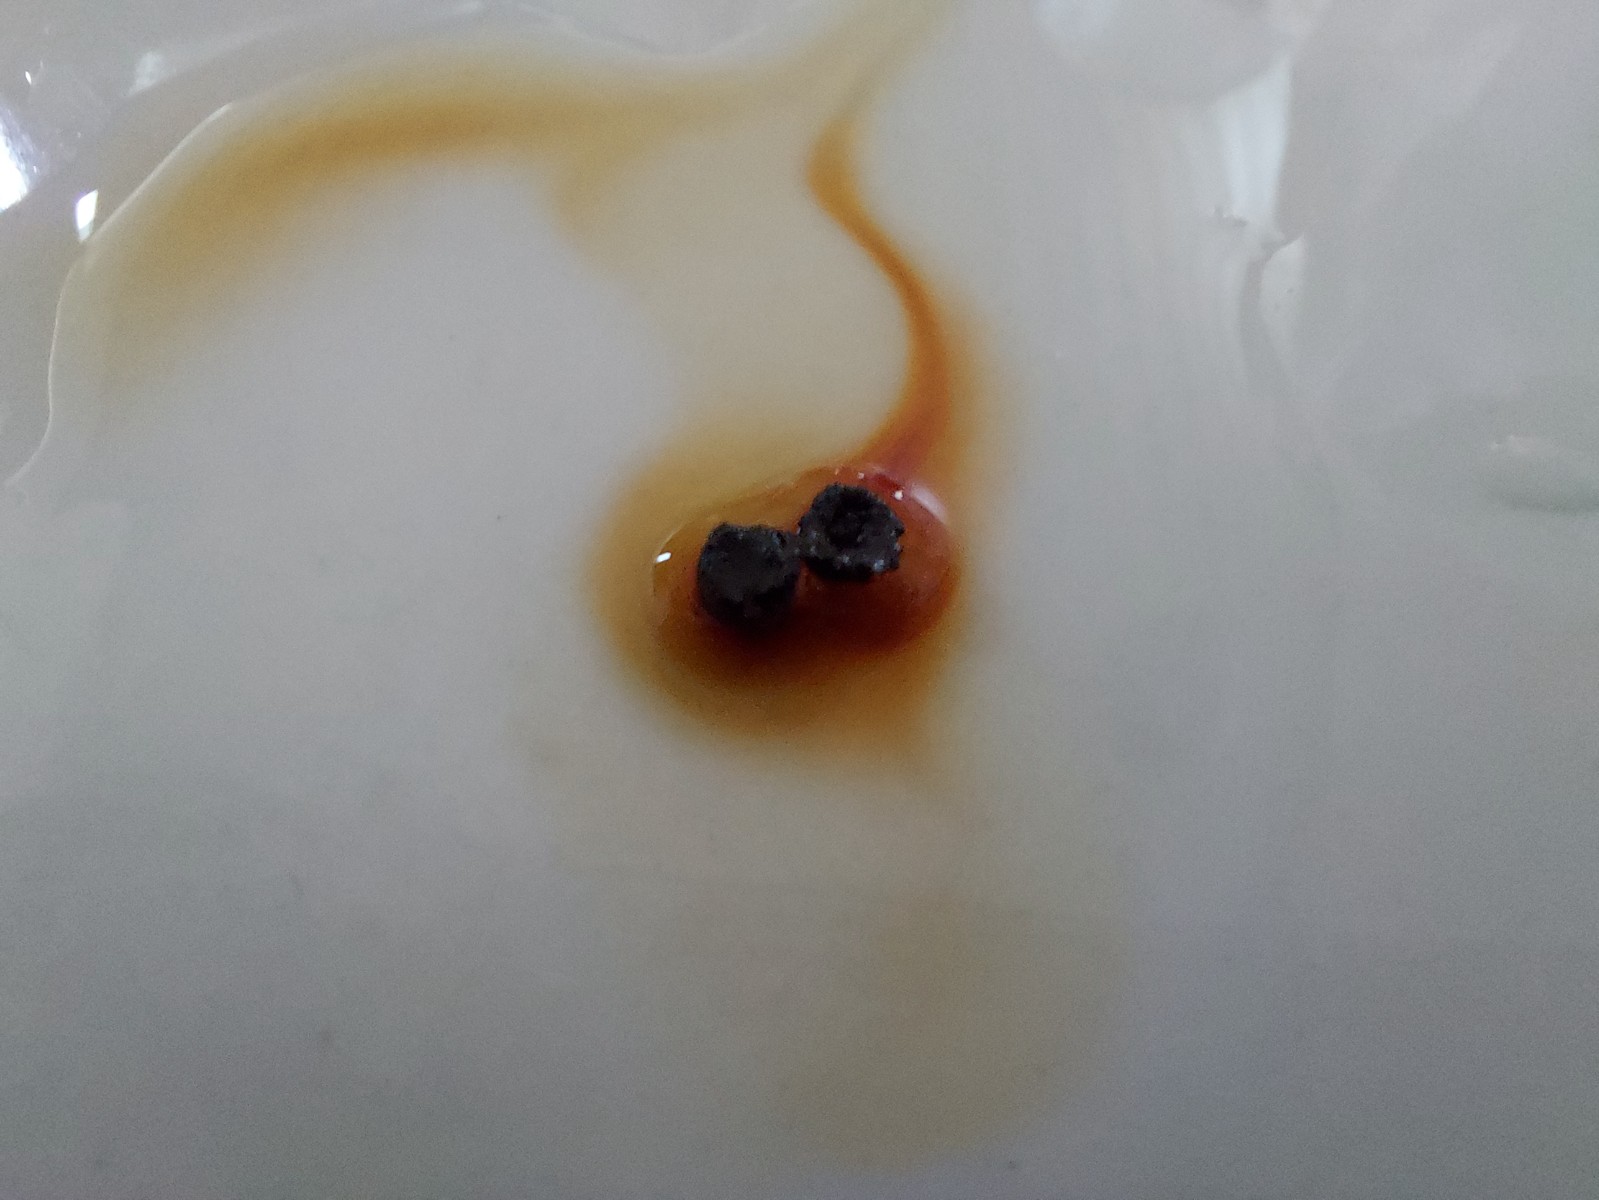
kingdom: Fungi
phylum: Ascomycota
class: Sordariomycetes
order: Xylariales
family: Hypoxylaceae
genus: Hypoxylon
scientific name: Hypoxylon
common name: kulbær
